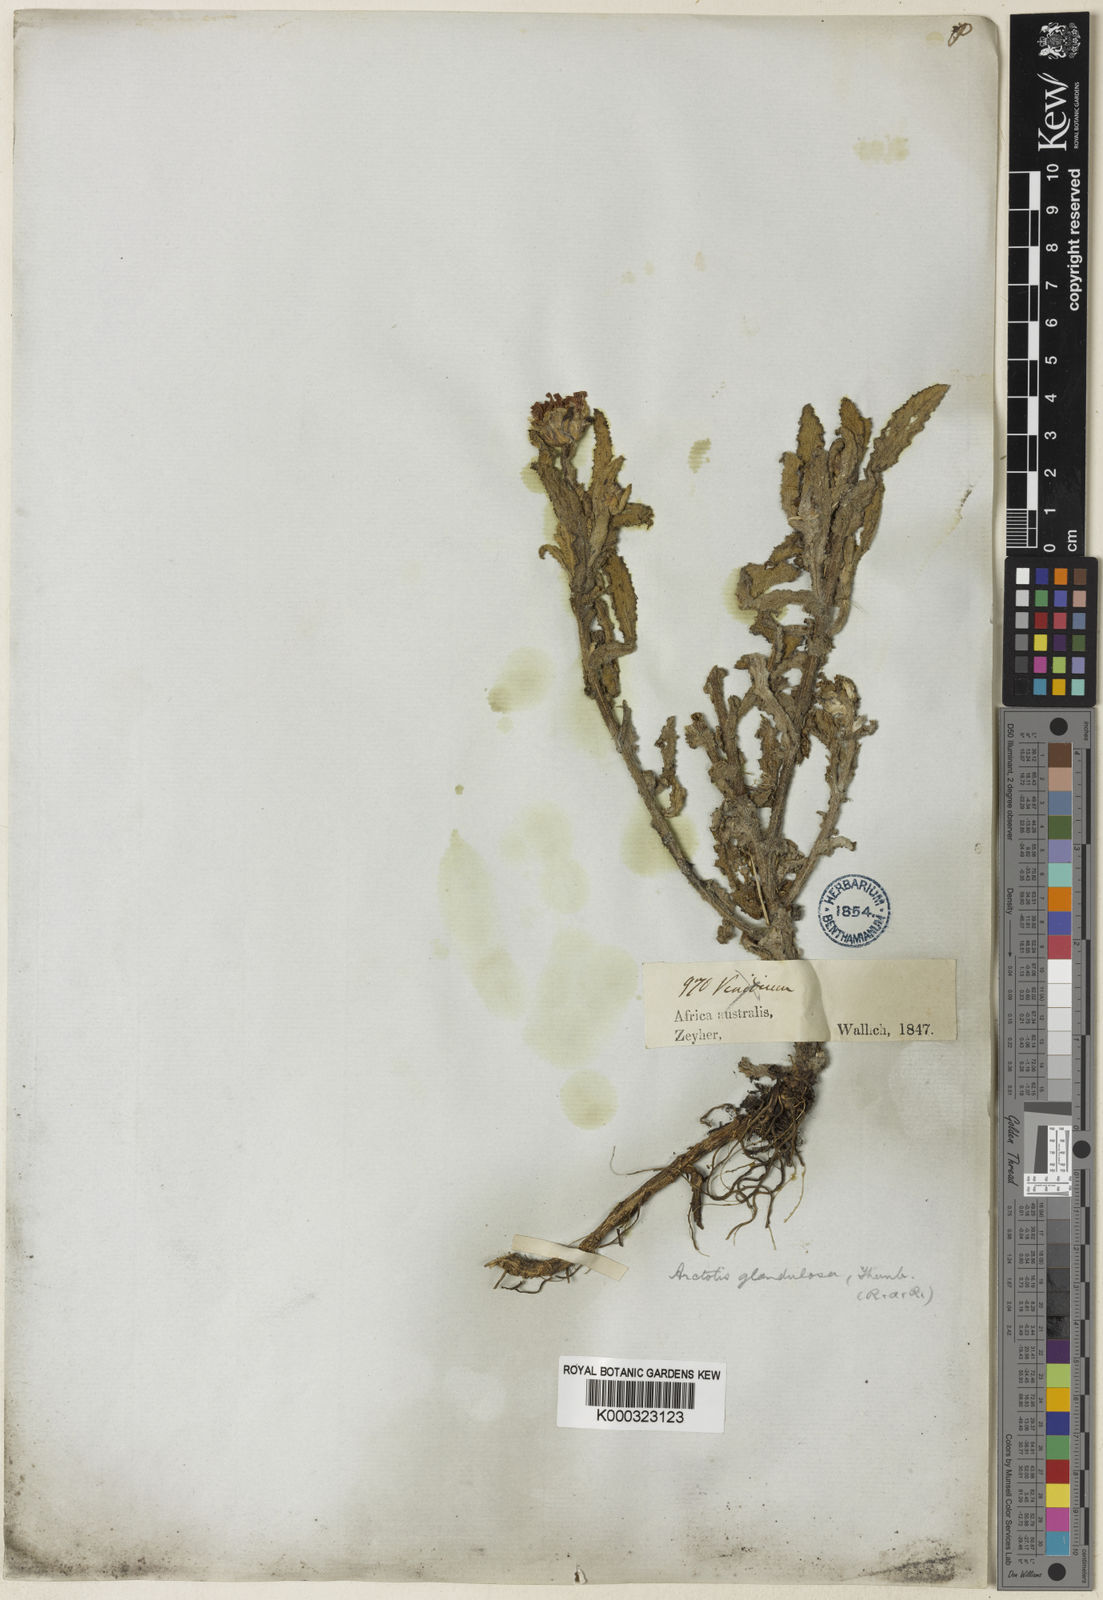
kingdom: Plantae
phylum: Tracheophyta
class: Magnoliopsida
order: Asterales
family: Asteraceae
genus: Arctotis
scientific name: Arctotis angustifolia
